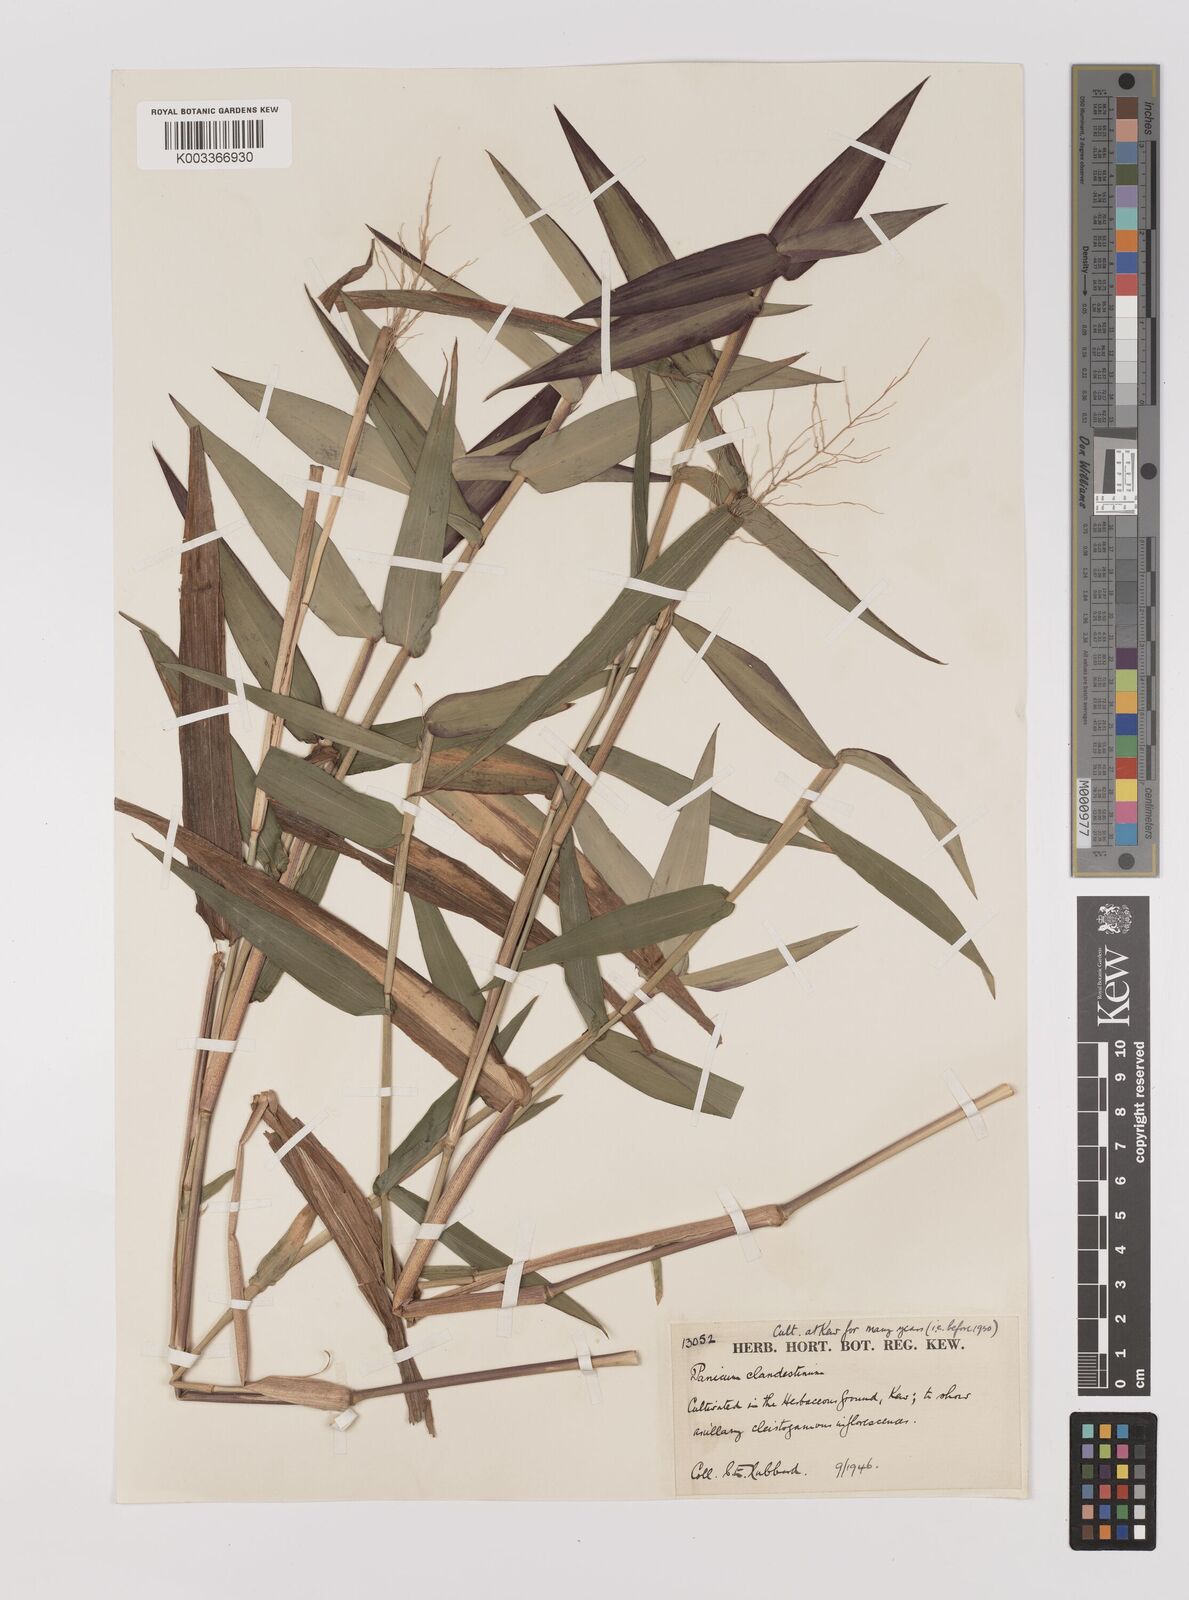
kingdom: Plantae
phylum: Tracheophyta
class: Liliopsida
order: Poales
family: Poaceae
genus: Dichanthelium
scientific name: Dichanthelium clandestinum
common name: Deer-tongue grass
